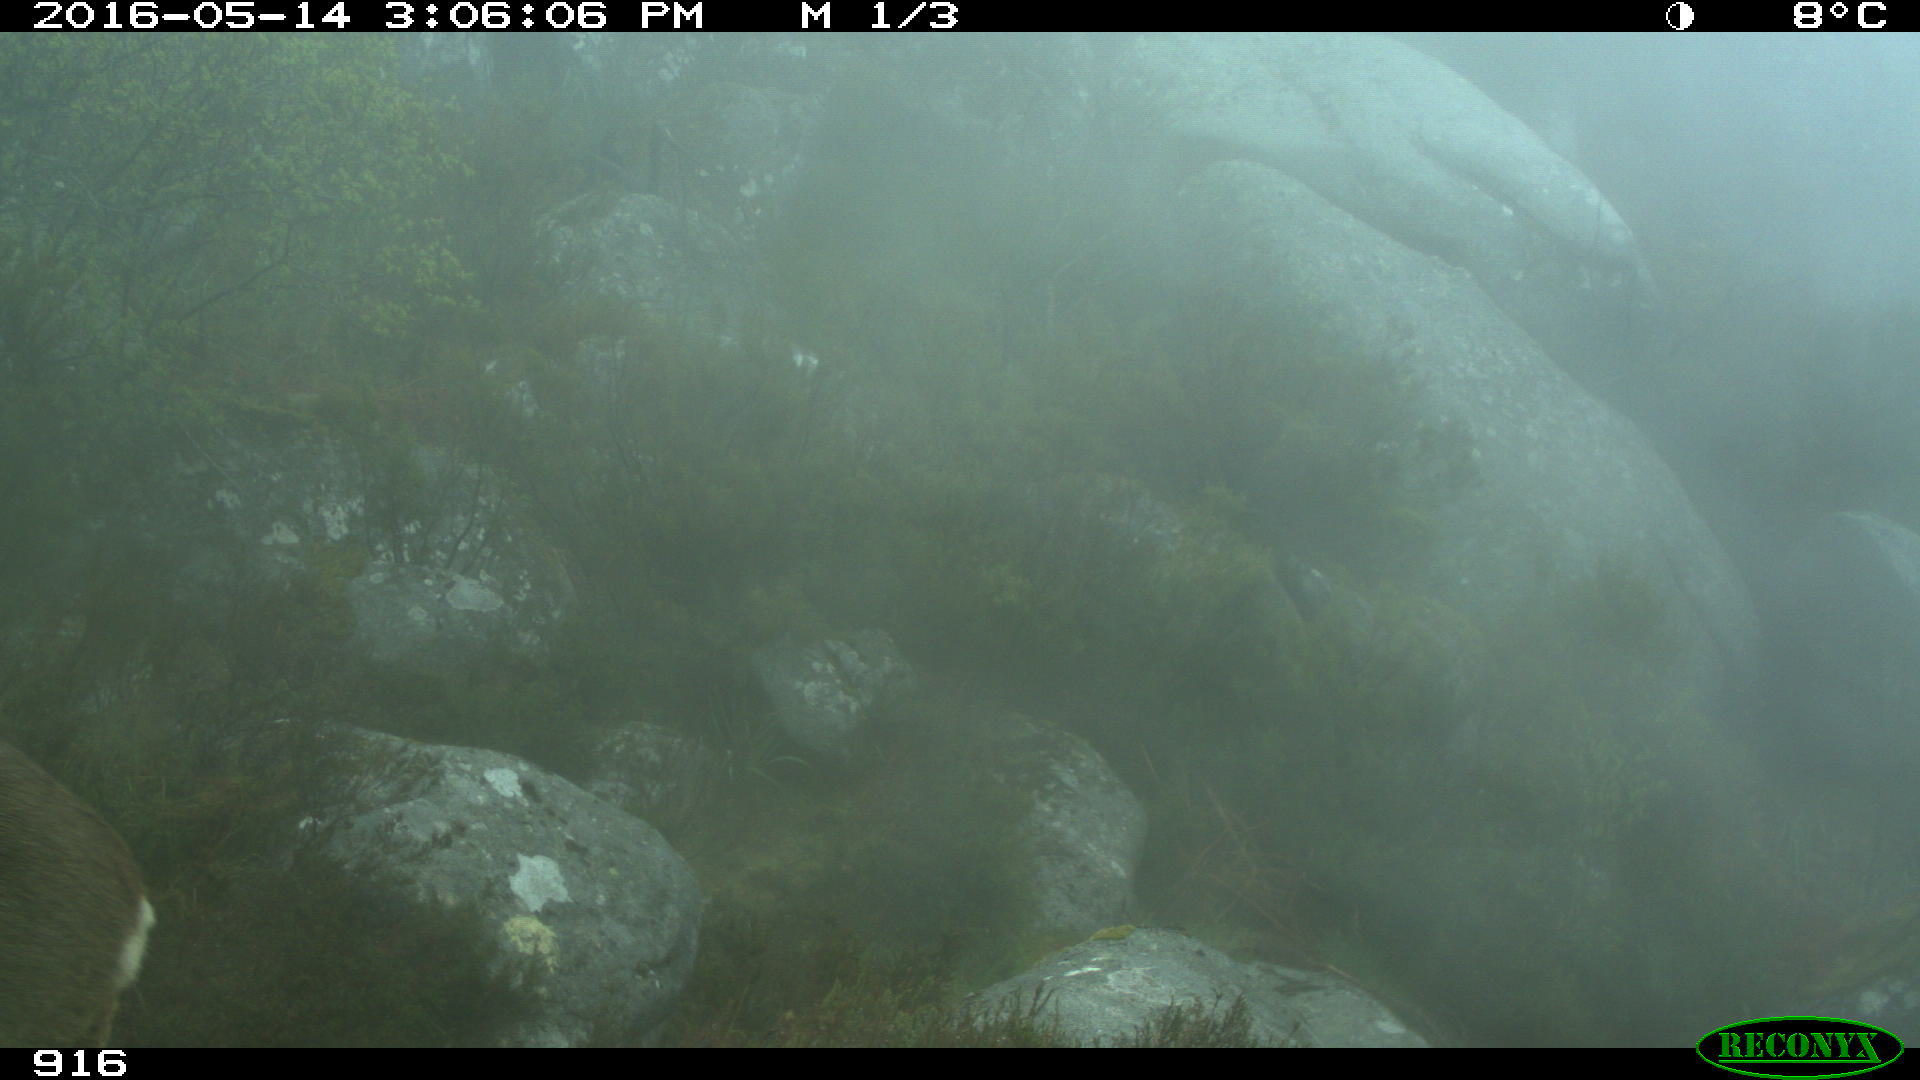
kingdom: Animalia
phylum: Chordata
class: Mammalia
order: Artiodactyla
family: Cervidae
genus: Capreolus
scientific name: Capreolus capreolus
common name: Western roe deer
